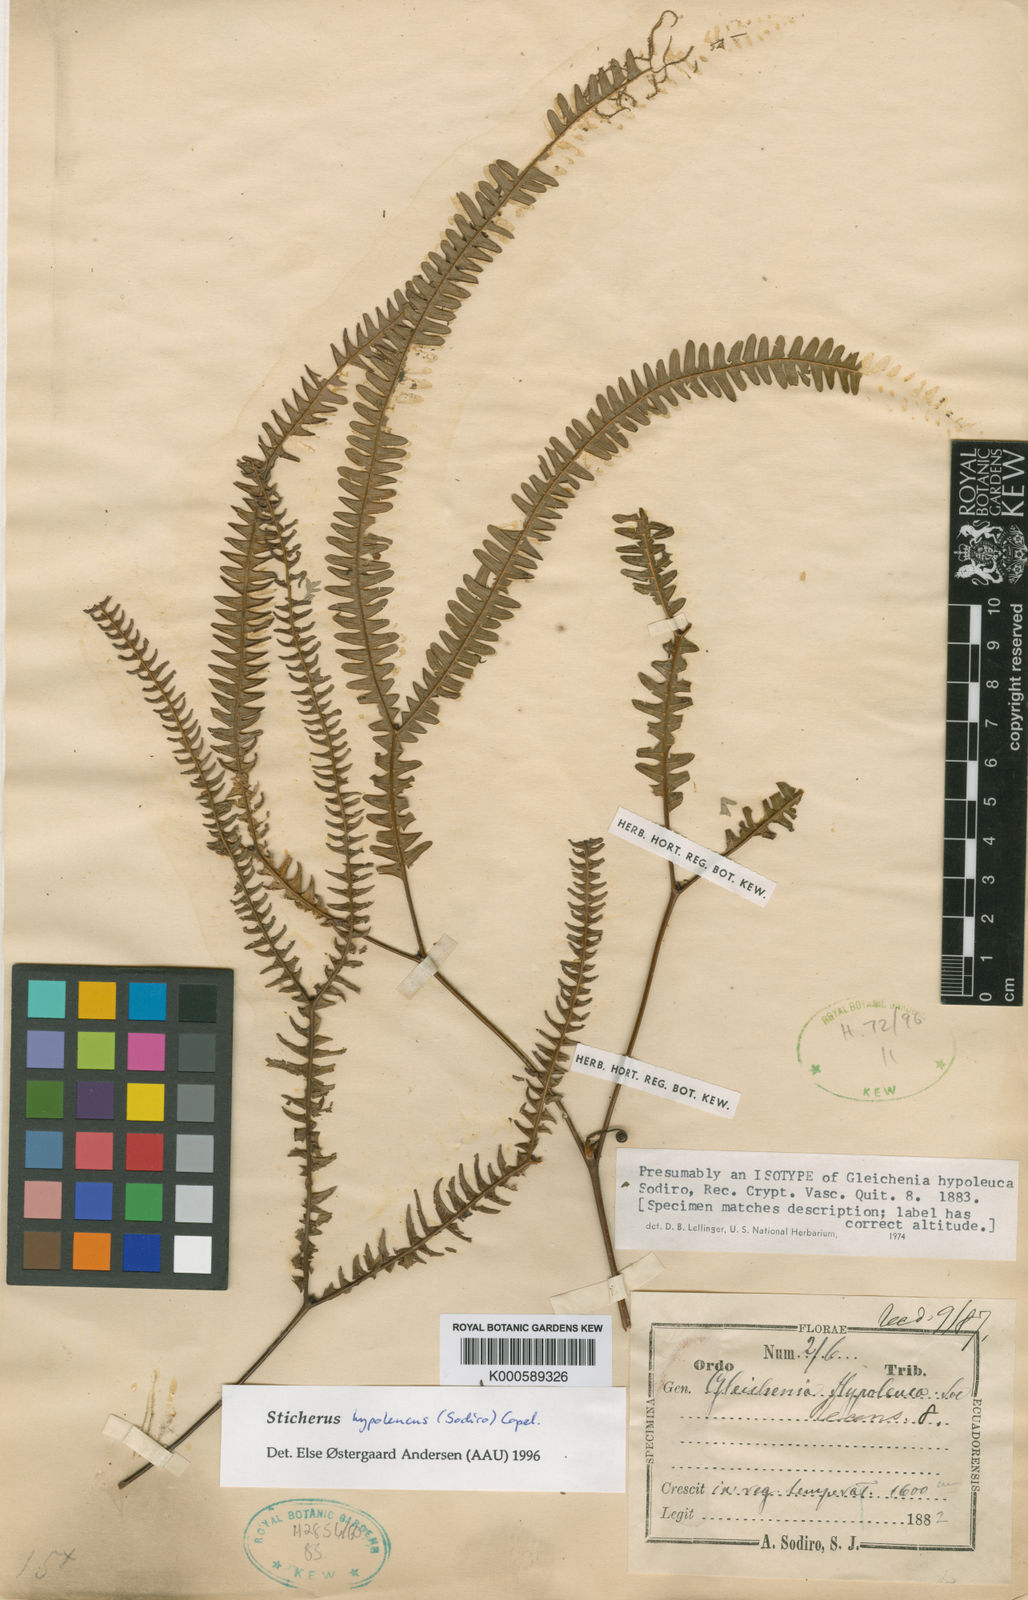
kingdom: Plantae
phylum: Tracheophyta
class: Polypodiopsida
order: Gleicheniales
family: Gleicheniaceae
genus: Sticherus
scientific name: Sticherus hypoleucus
